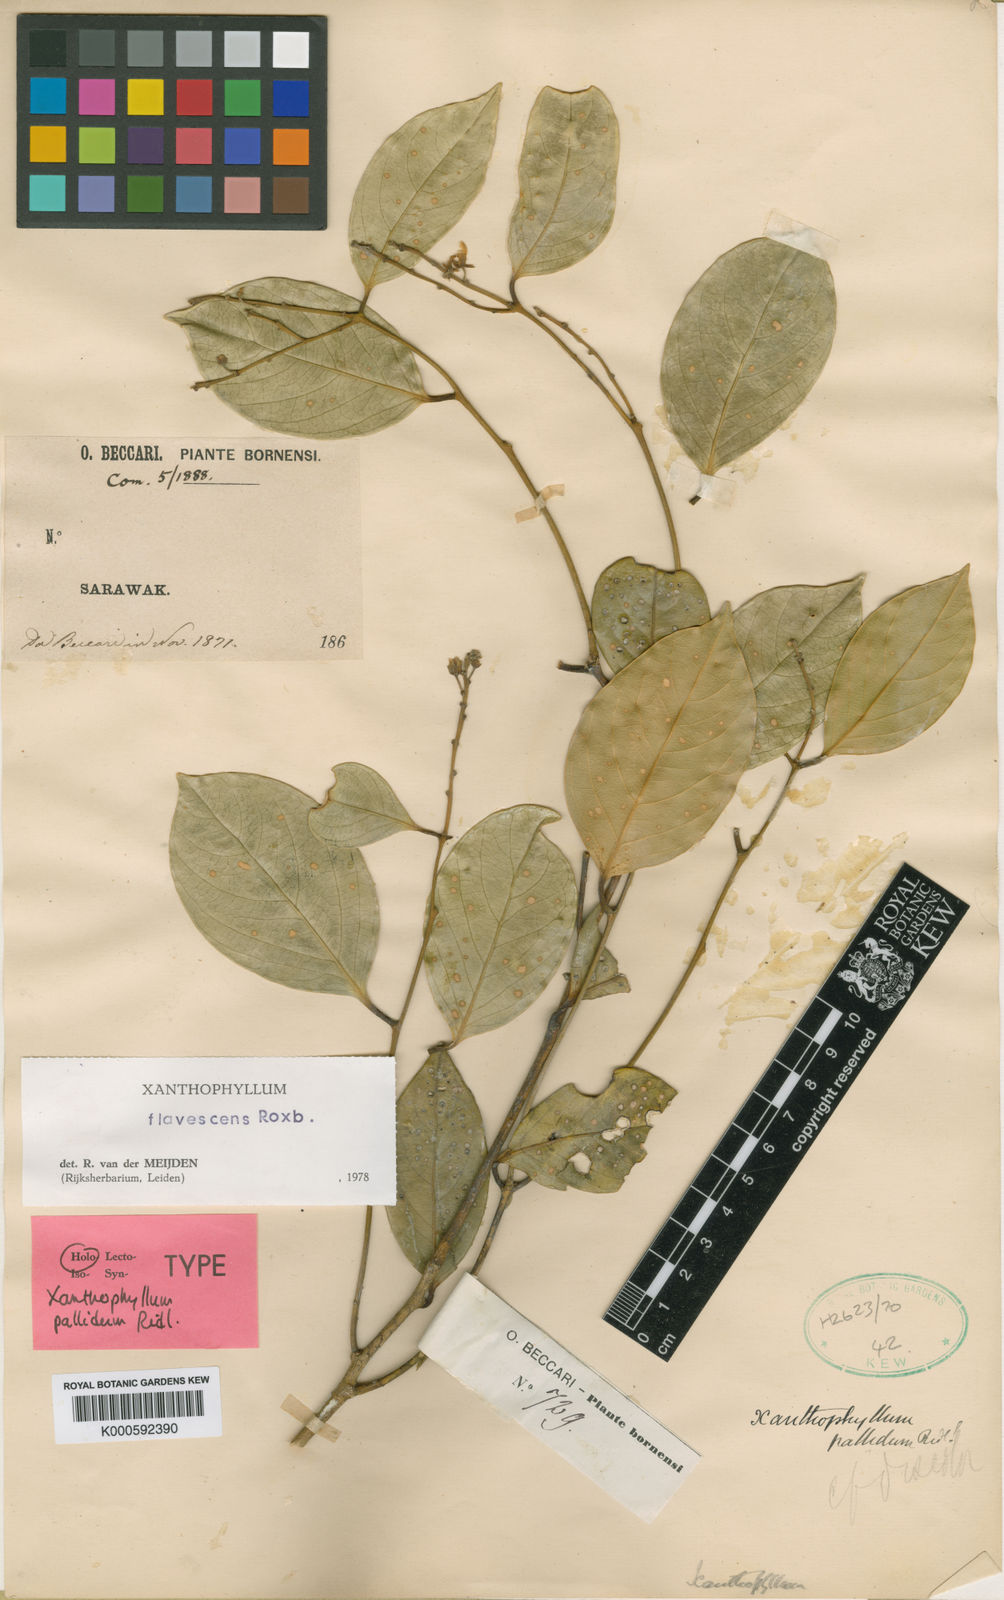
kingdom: Plantae
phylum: Tracheophyta
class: Magnoliopsida
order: Fabales
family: Polygalaceae
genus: Xanthophyllum
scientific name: Xanthophyllum flavescens
